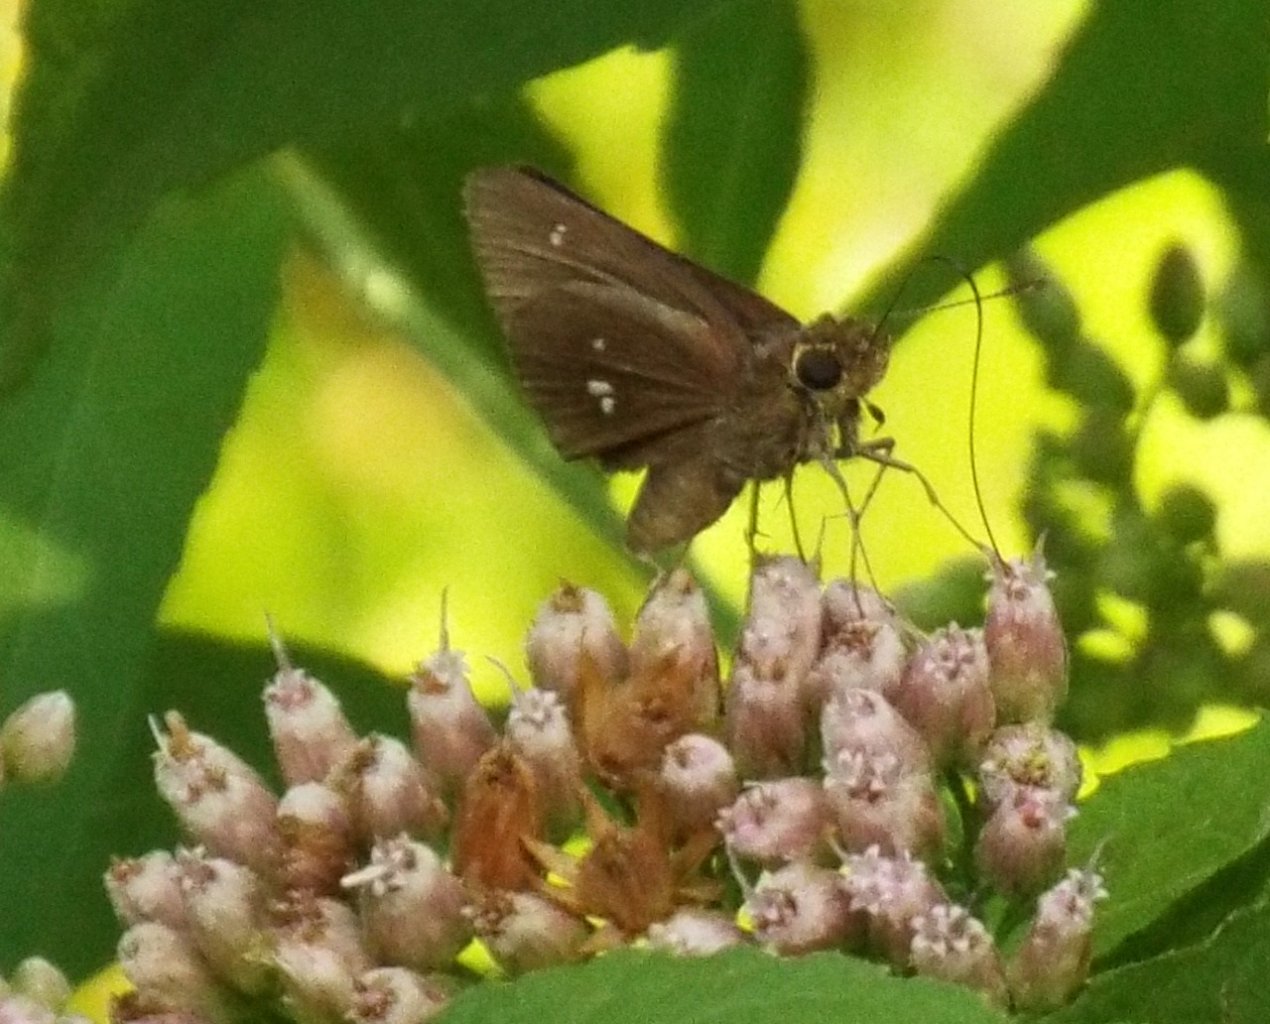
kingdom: Animalia
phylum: Arthropoda
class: Insecta
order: Lepidoptera
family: Hesperiidae
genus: Oligoria
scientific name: Oligoria maculata
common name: Twin-spot Skipper
